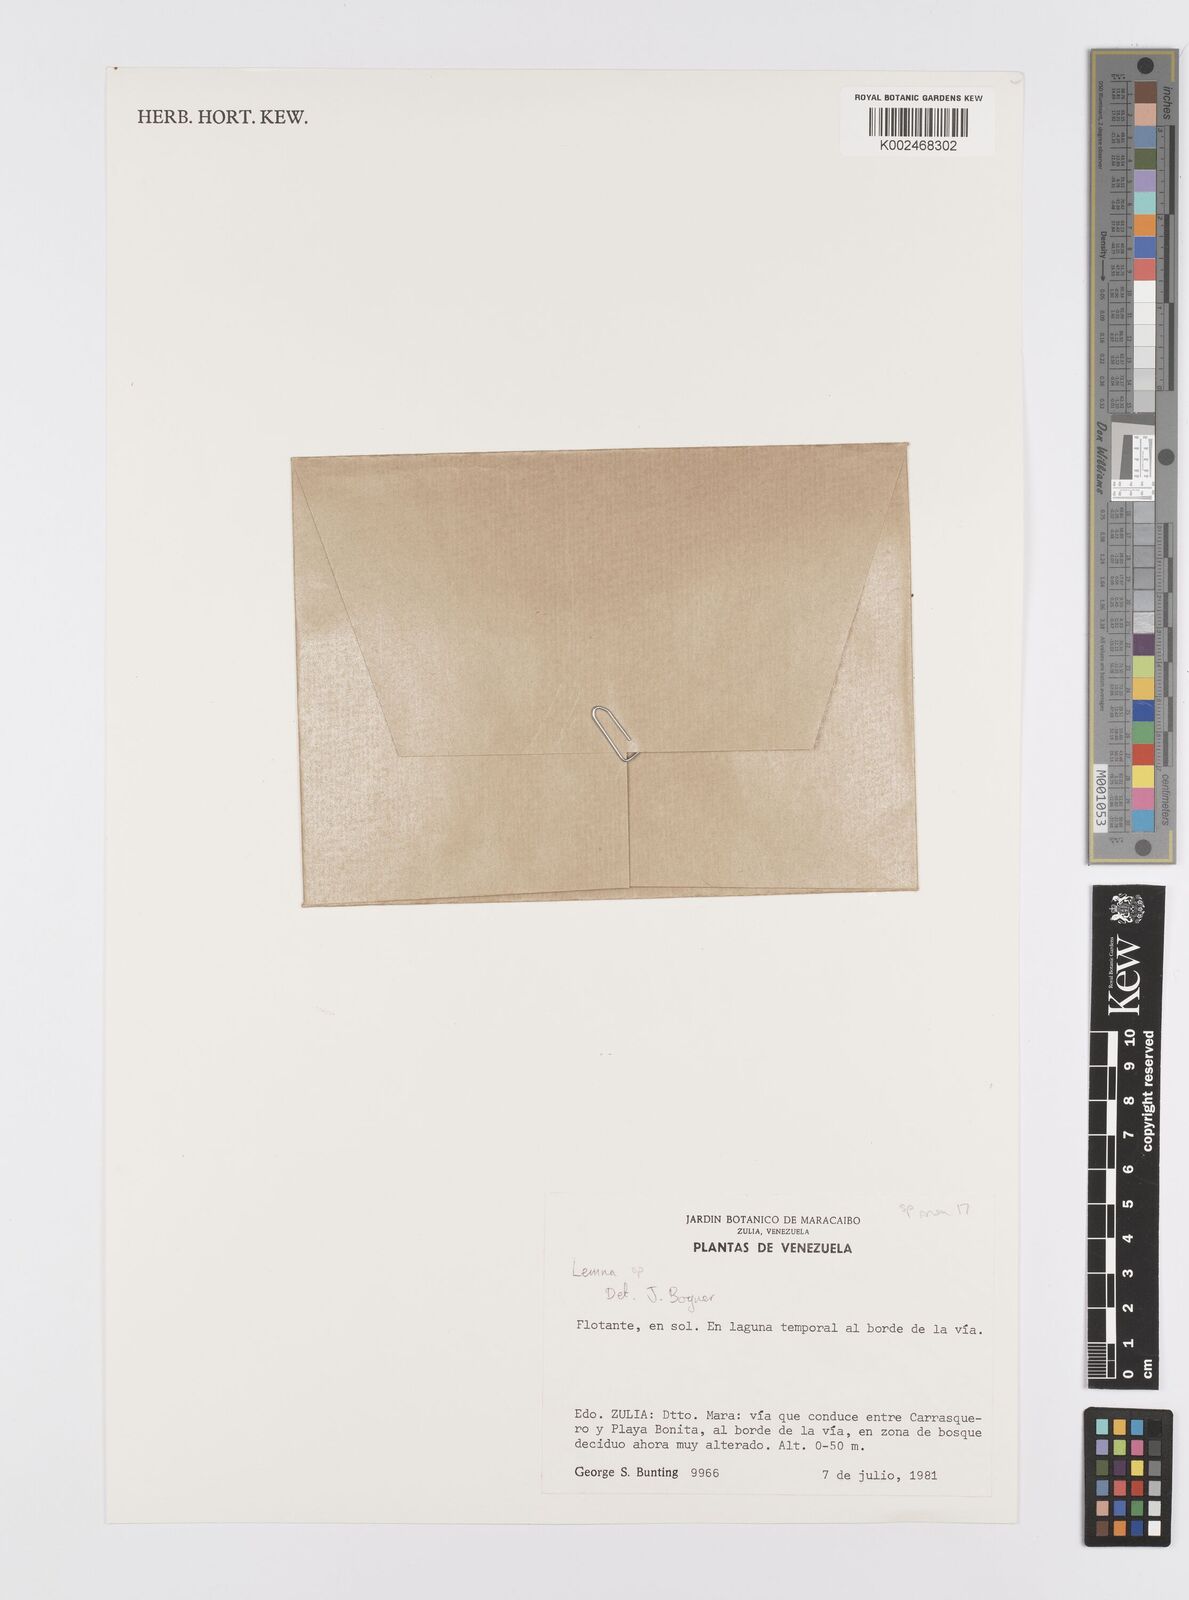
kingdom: Plantae
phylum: Tracheophyta
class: Liliopsida
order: Alismatales
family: Araceae
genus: Lemna
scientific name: Lemna
